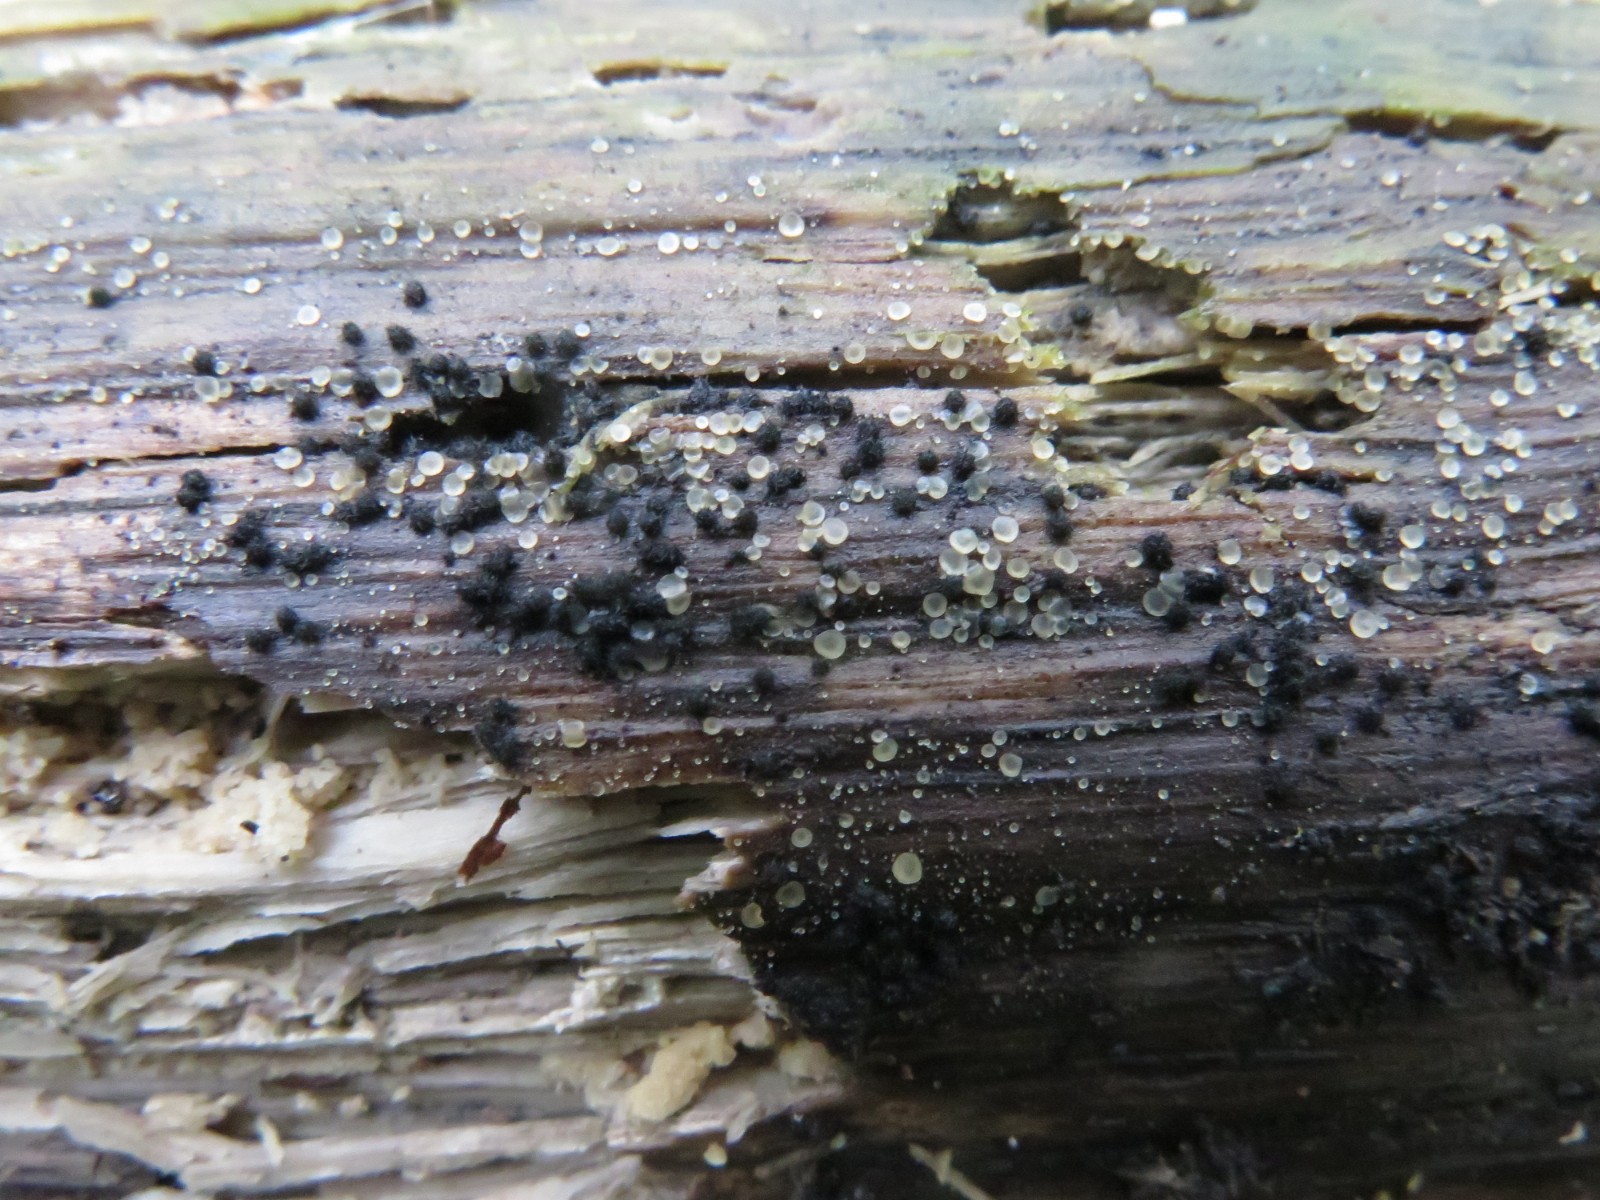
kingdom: Fungi
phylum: Ascomycota
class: Sordariomycetes
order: Sordariales
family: Lasiosphaeridaceae
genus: Lasiosphaeris
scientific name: Lasiosphaeris hirsuta
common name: sorthåret kernesvamp
